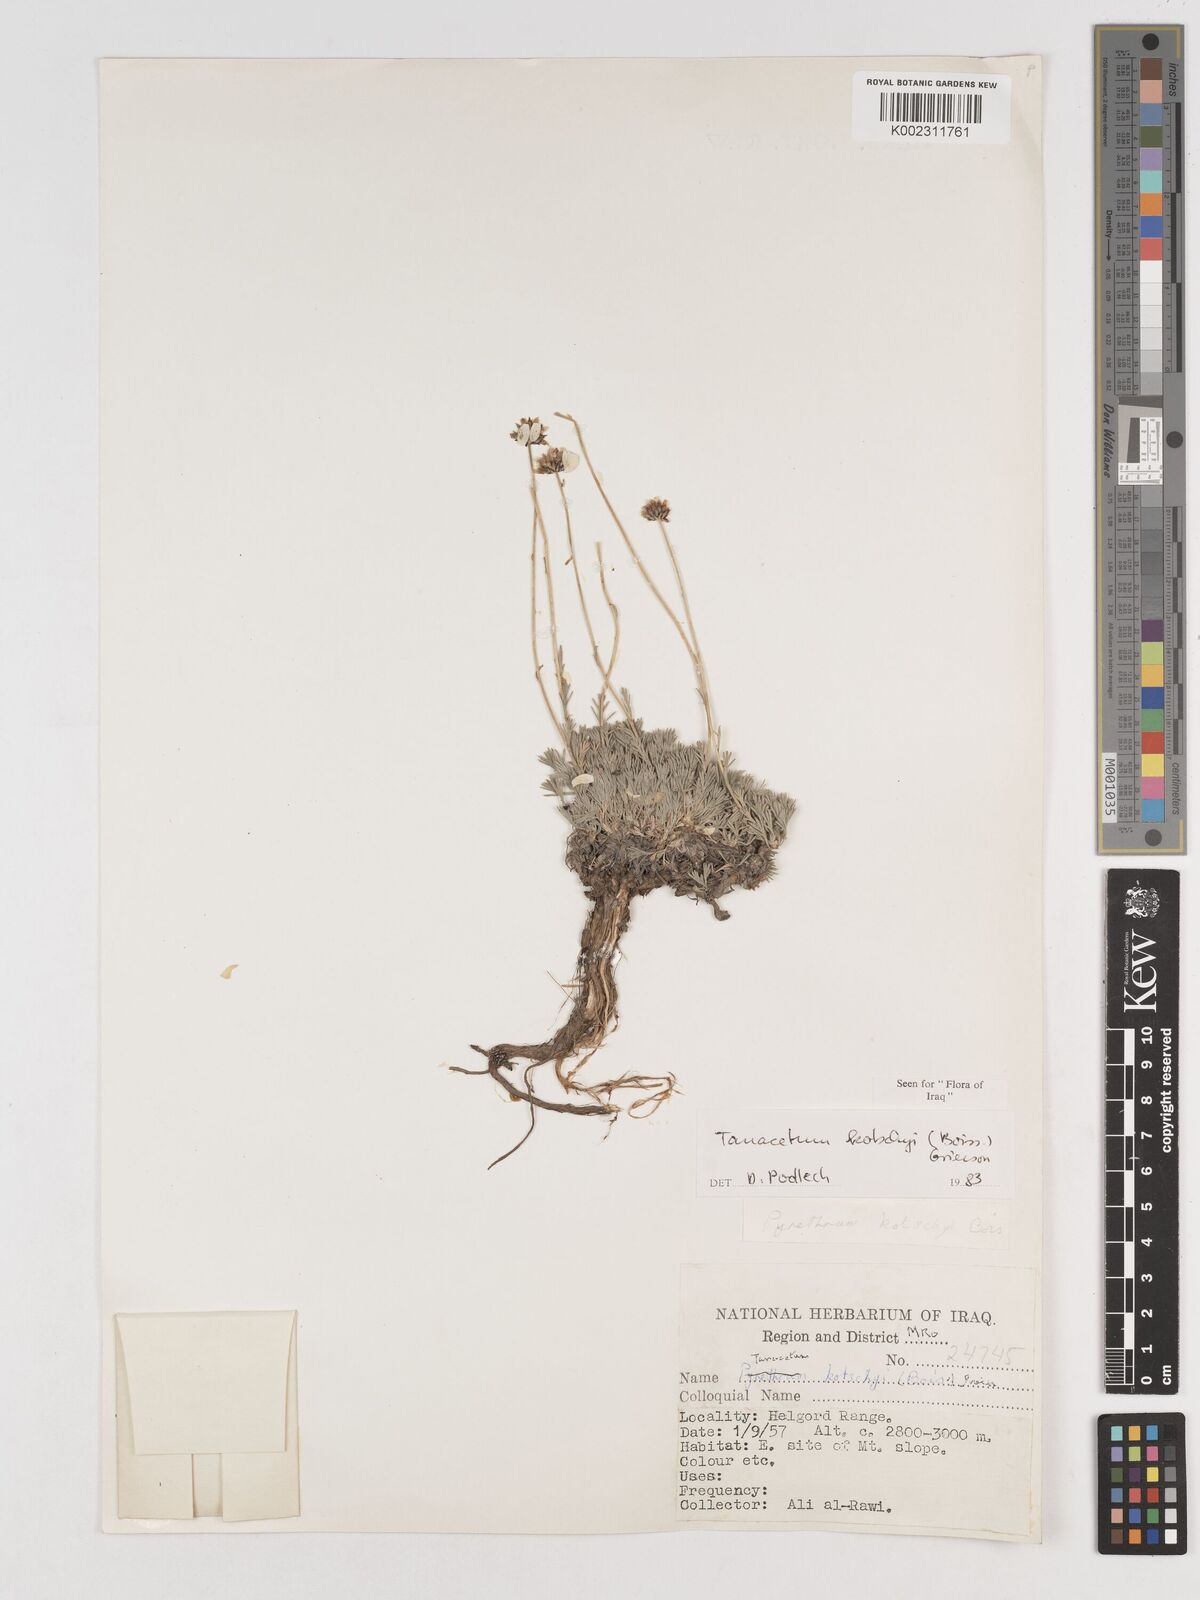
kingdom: Plantae
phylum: Tracheophyta
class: Magnoliopsida
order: Asterales
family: Asteraceae
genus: Tanacetum
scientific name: Tanacetum polycephalum
